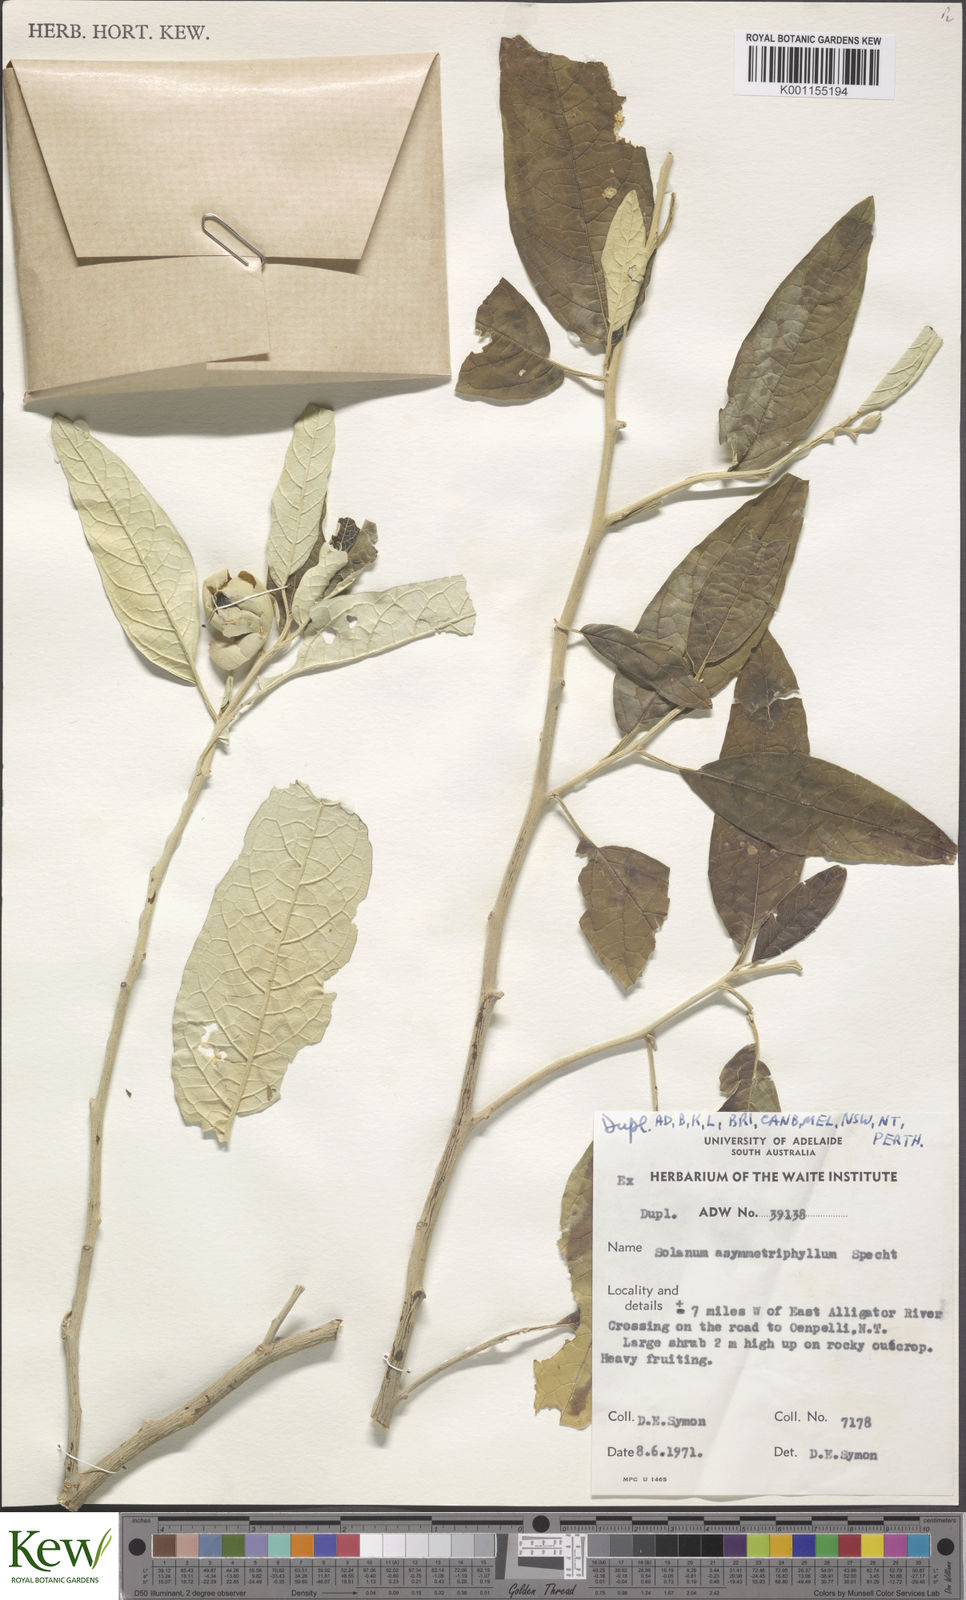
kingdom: Plantae
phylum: Tracheophyta
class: Magnoliopsida
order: Solanales
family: Solanaceae
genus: Solanum
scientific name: Solanum asymmetriphyllum
